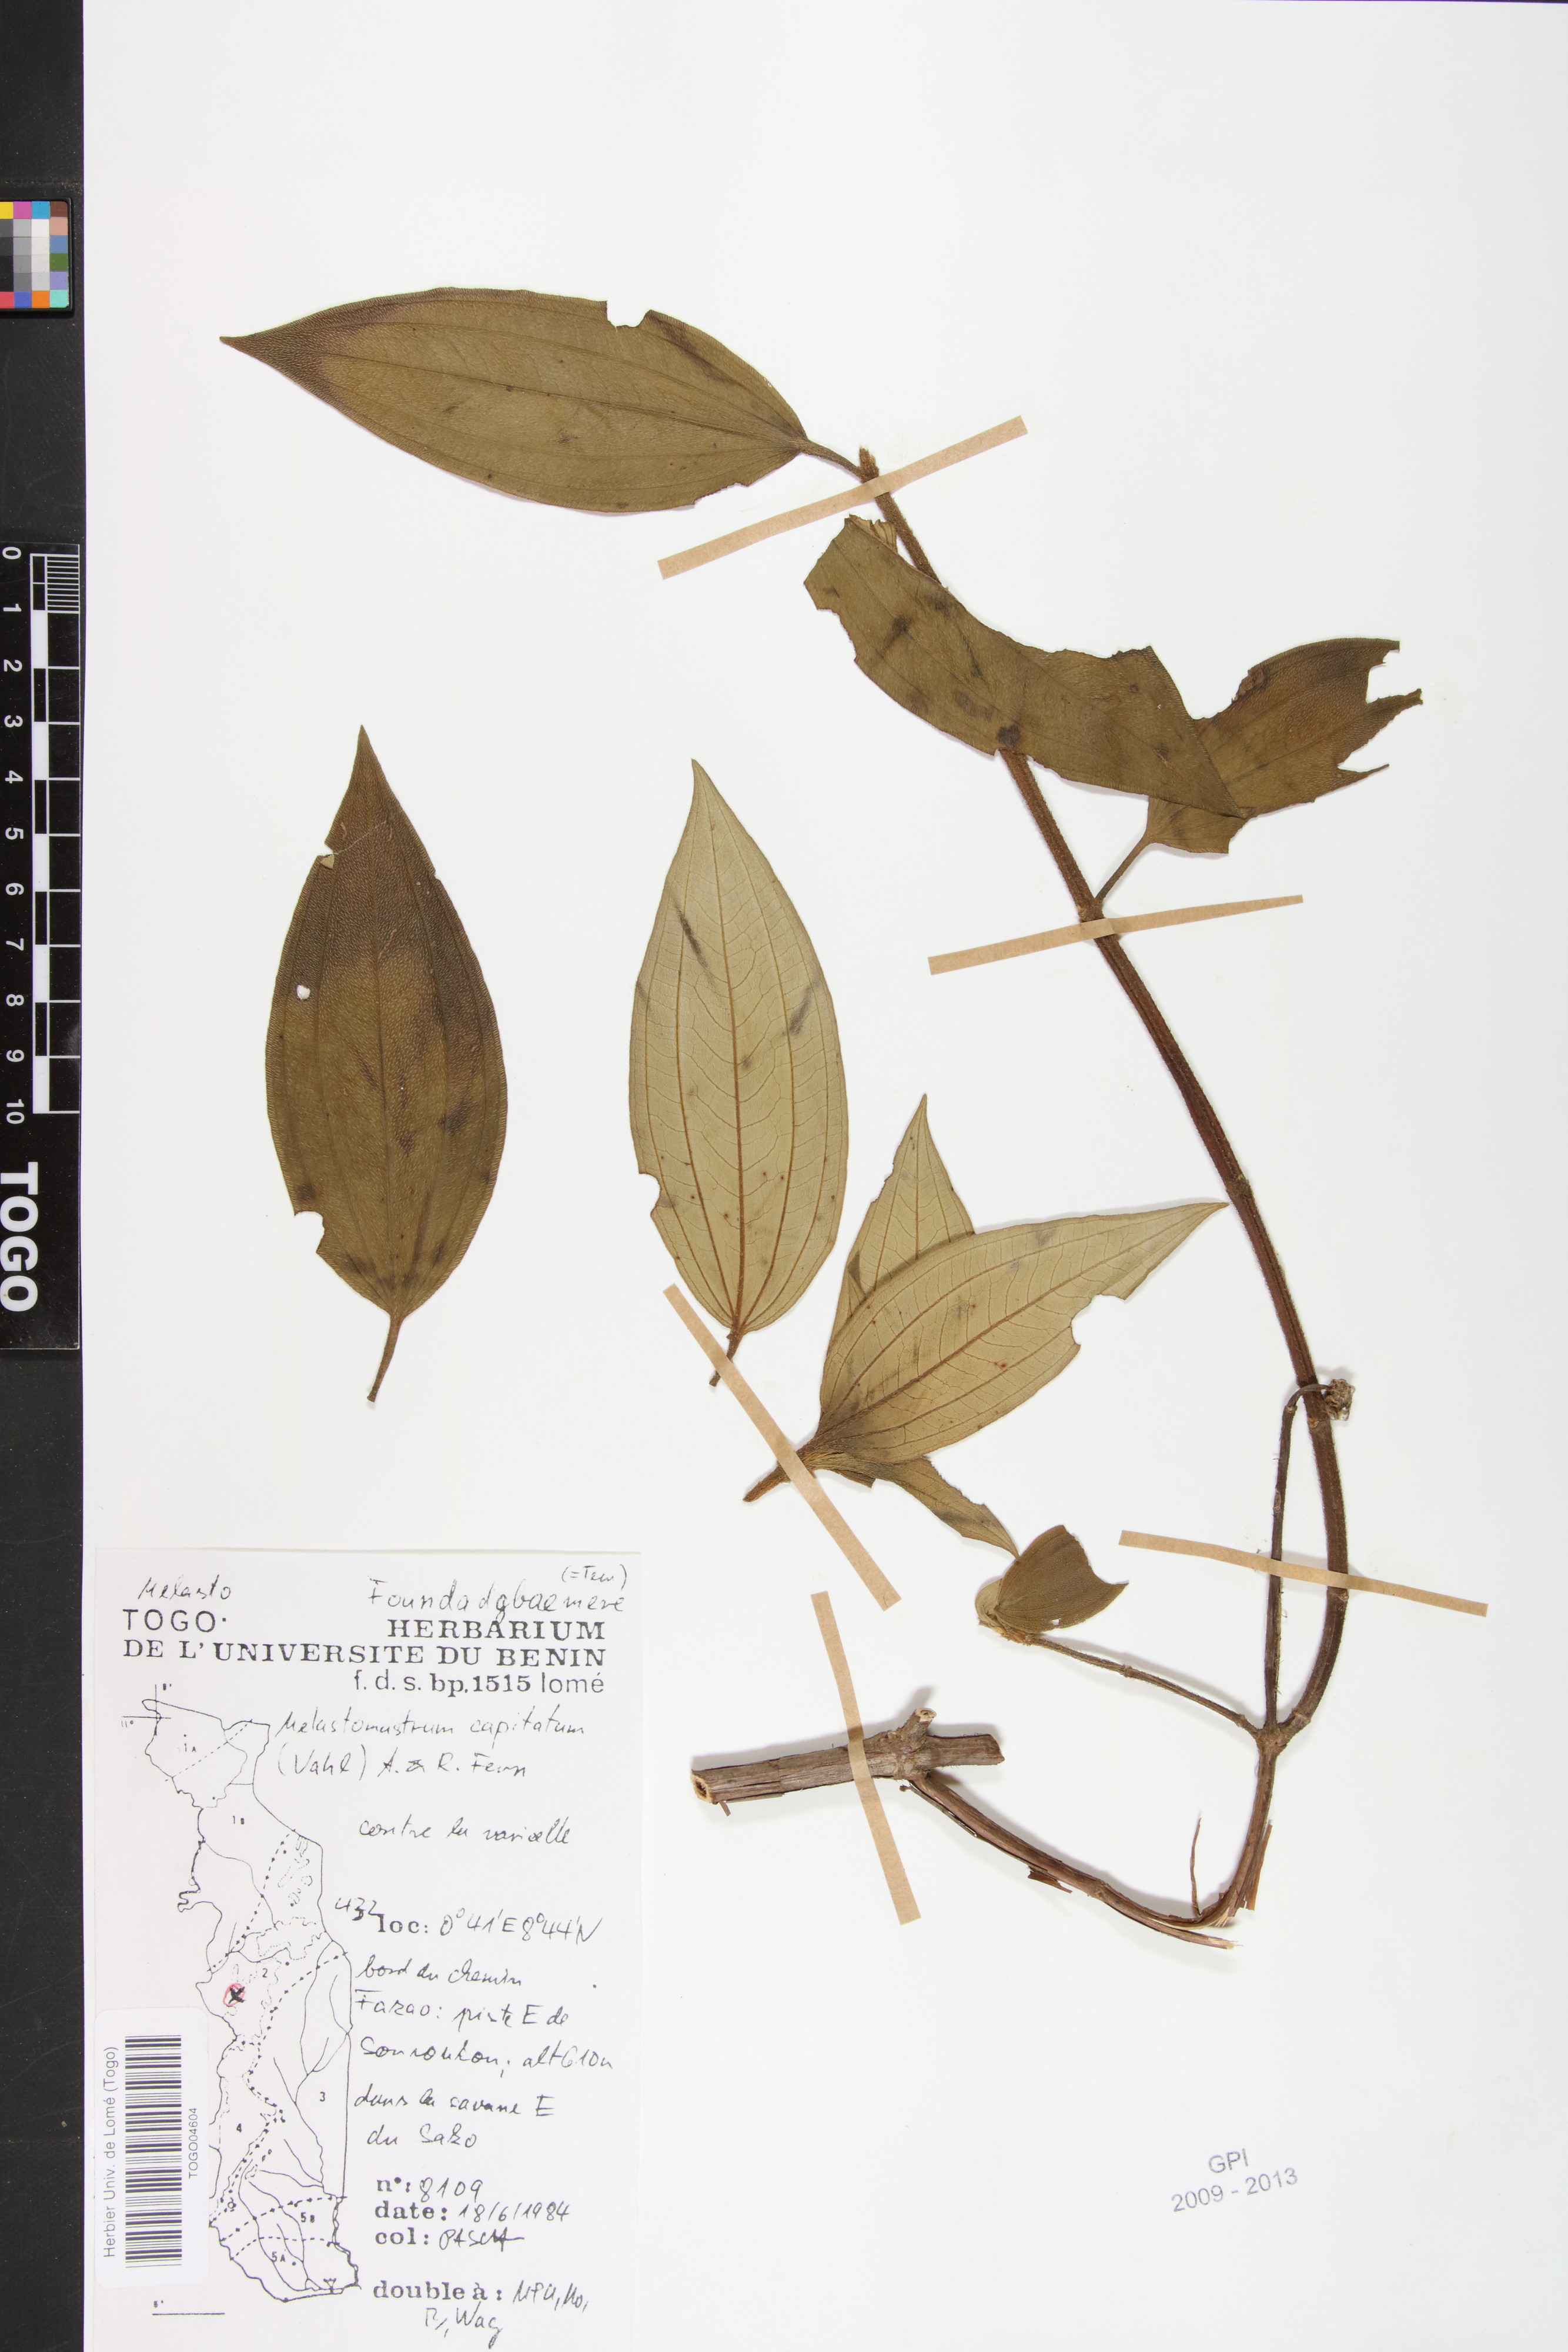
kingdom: Plantae
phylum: Tracheophyta
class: Magnoliopsida
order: Myrtales
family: Melastomataceae
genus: Melastomastrum
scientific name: Melastomastrum capitatum
